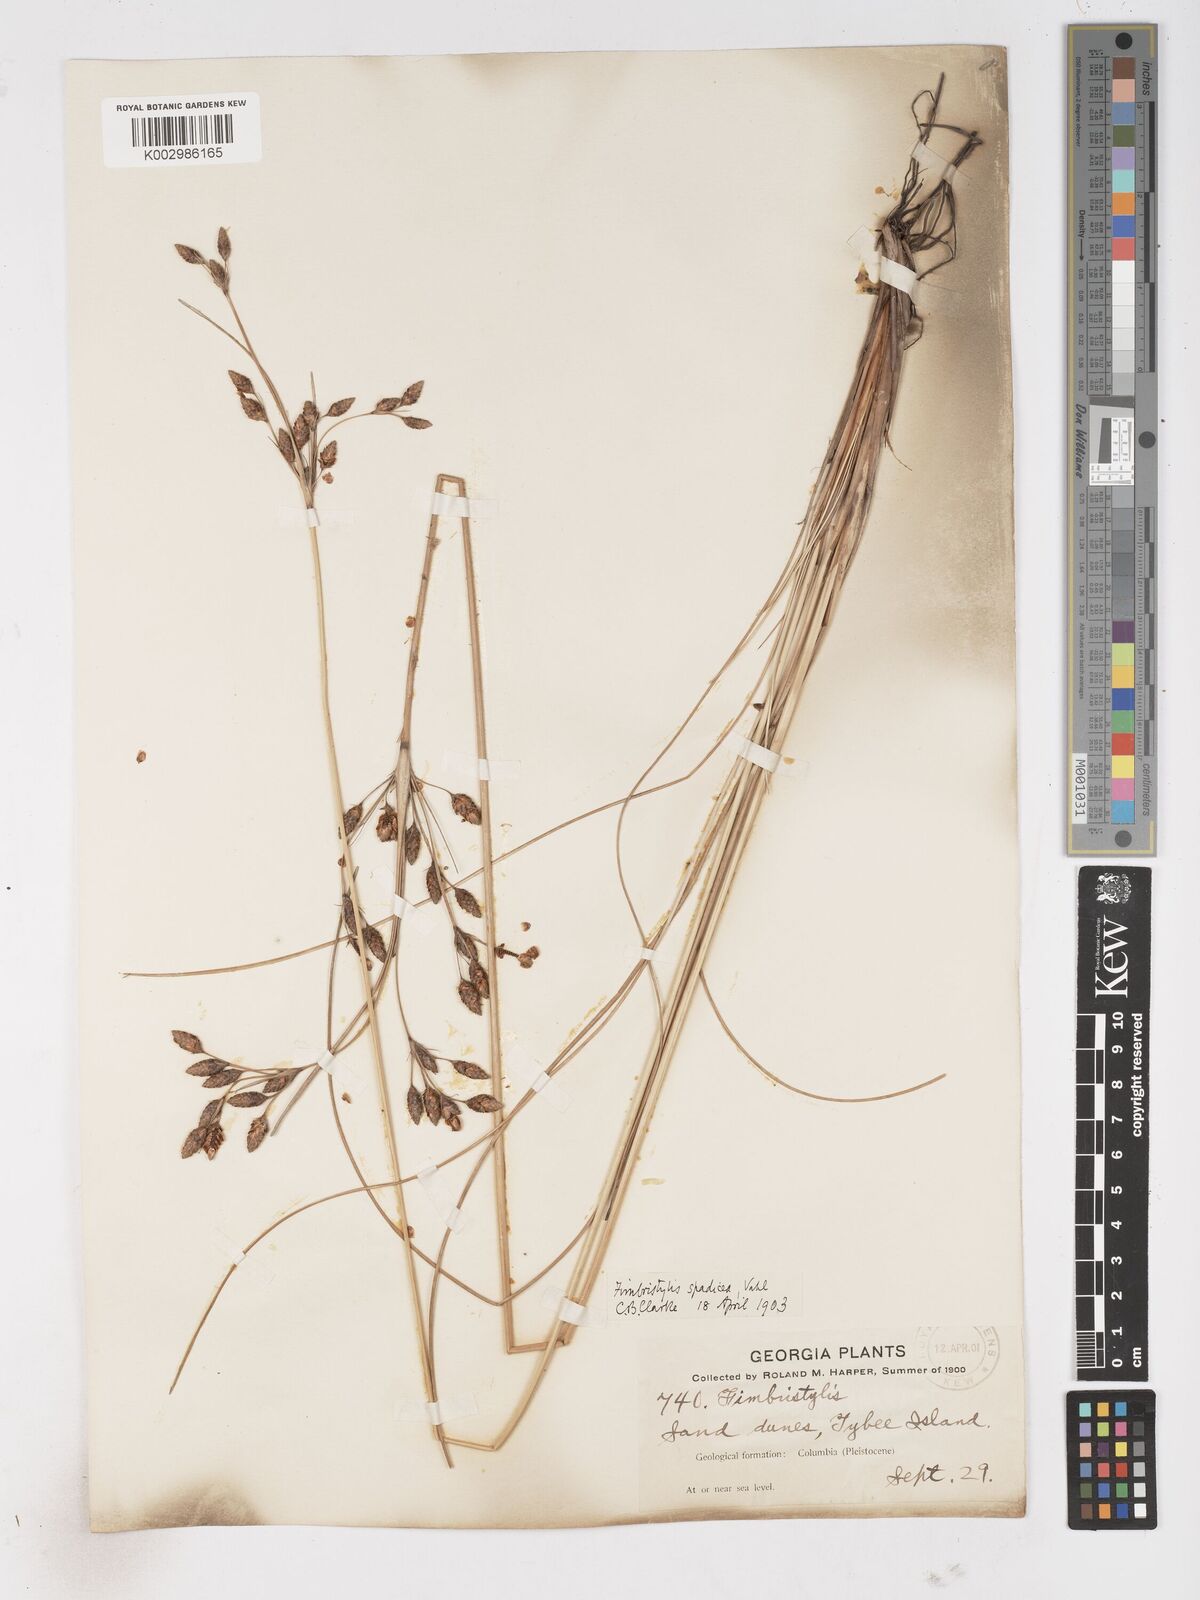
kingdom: Plantae
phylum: Tracheophyta
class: Liliopsida
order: Poales
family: Cyperaceae
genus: Fimbristylis
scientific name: Fimbristylis spadicea
